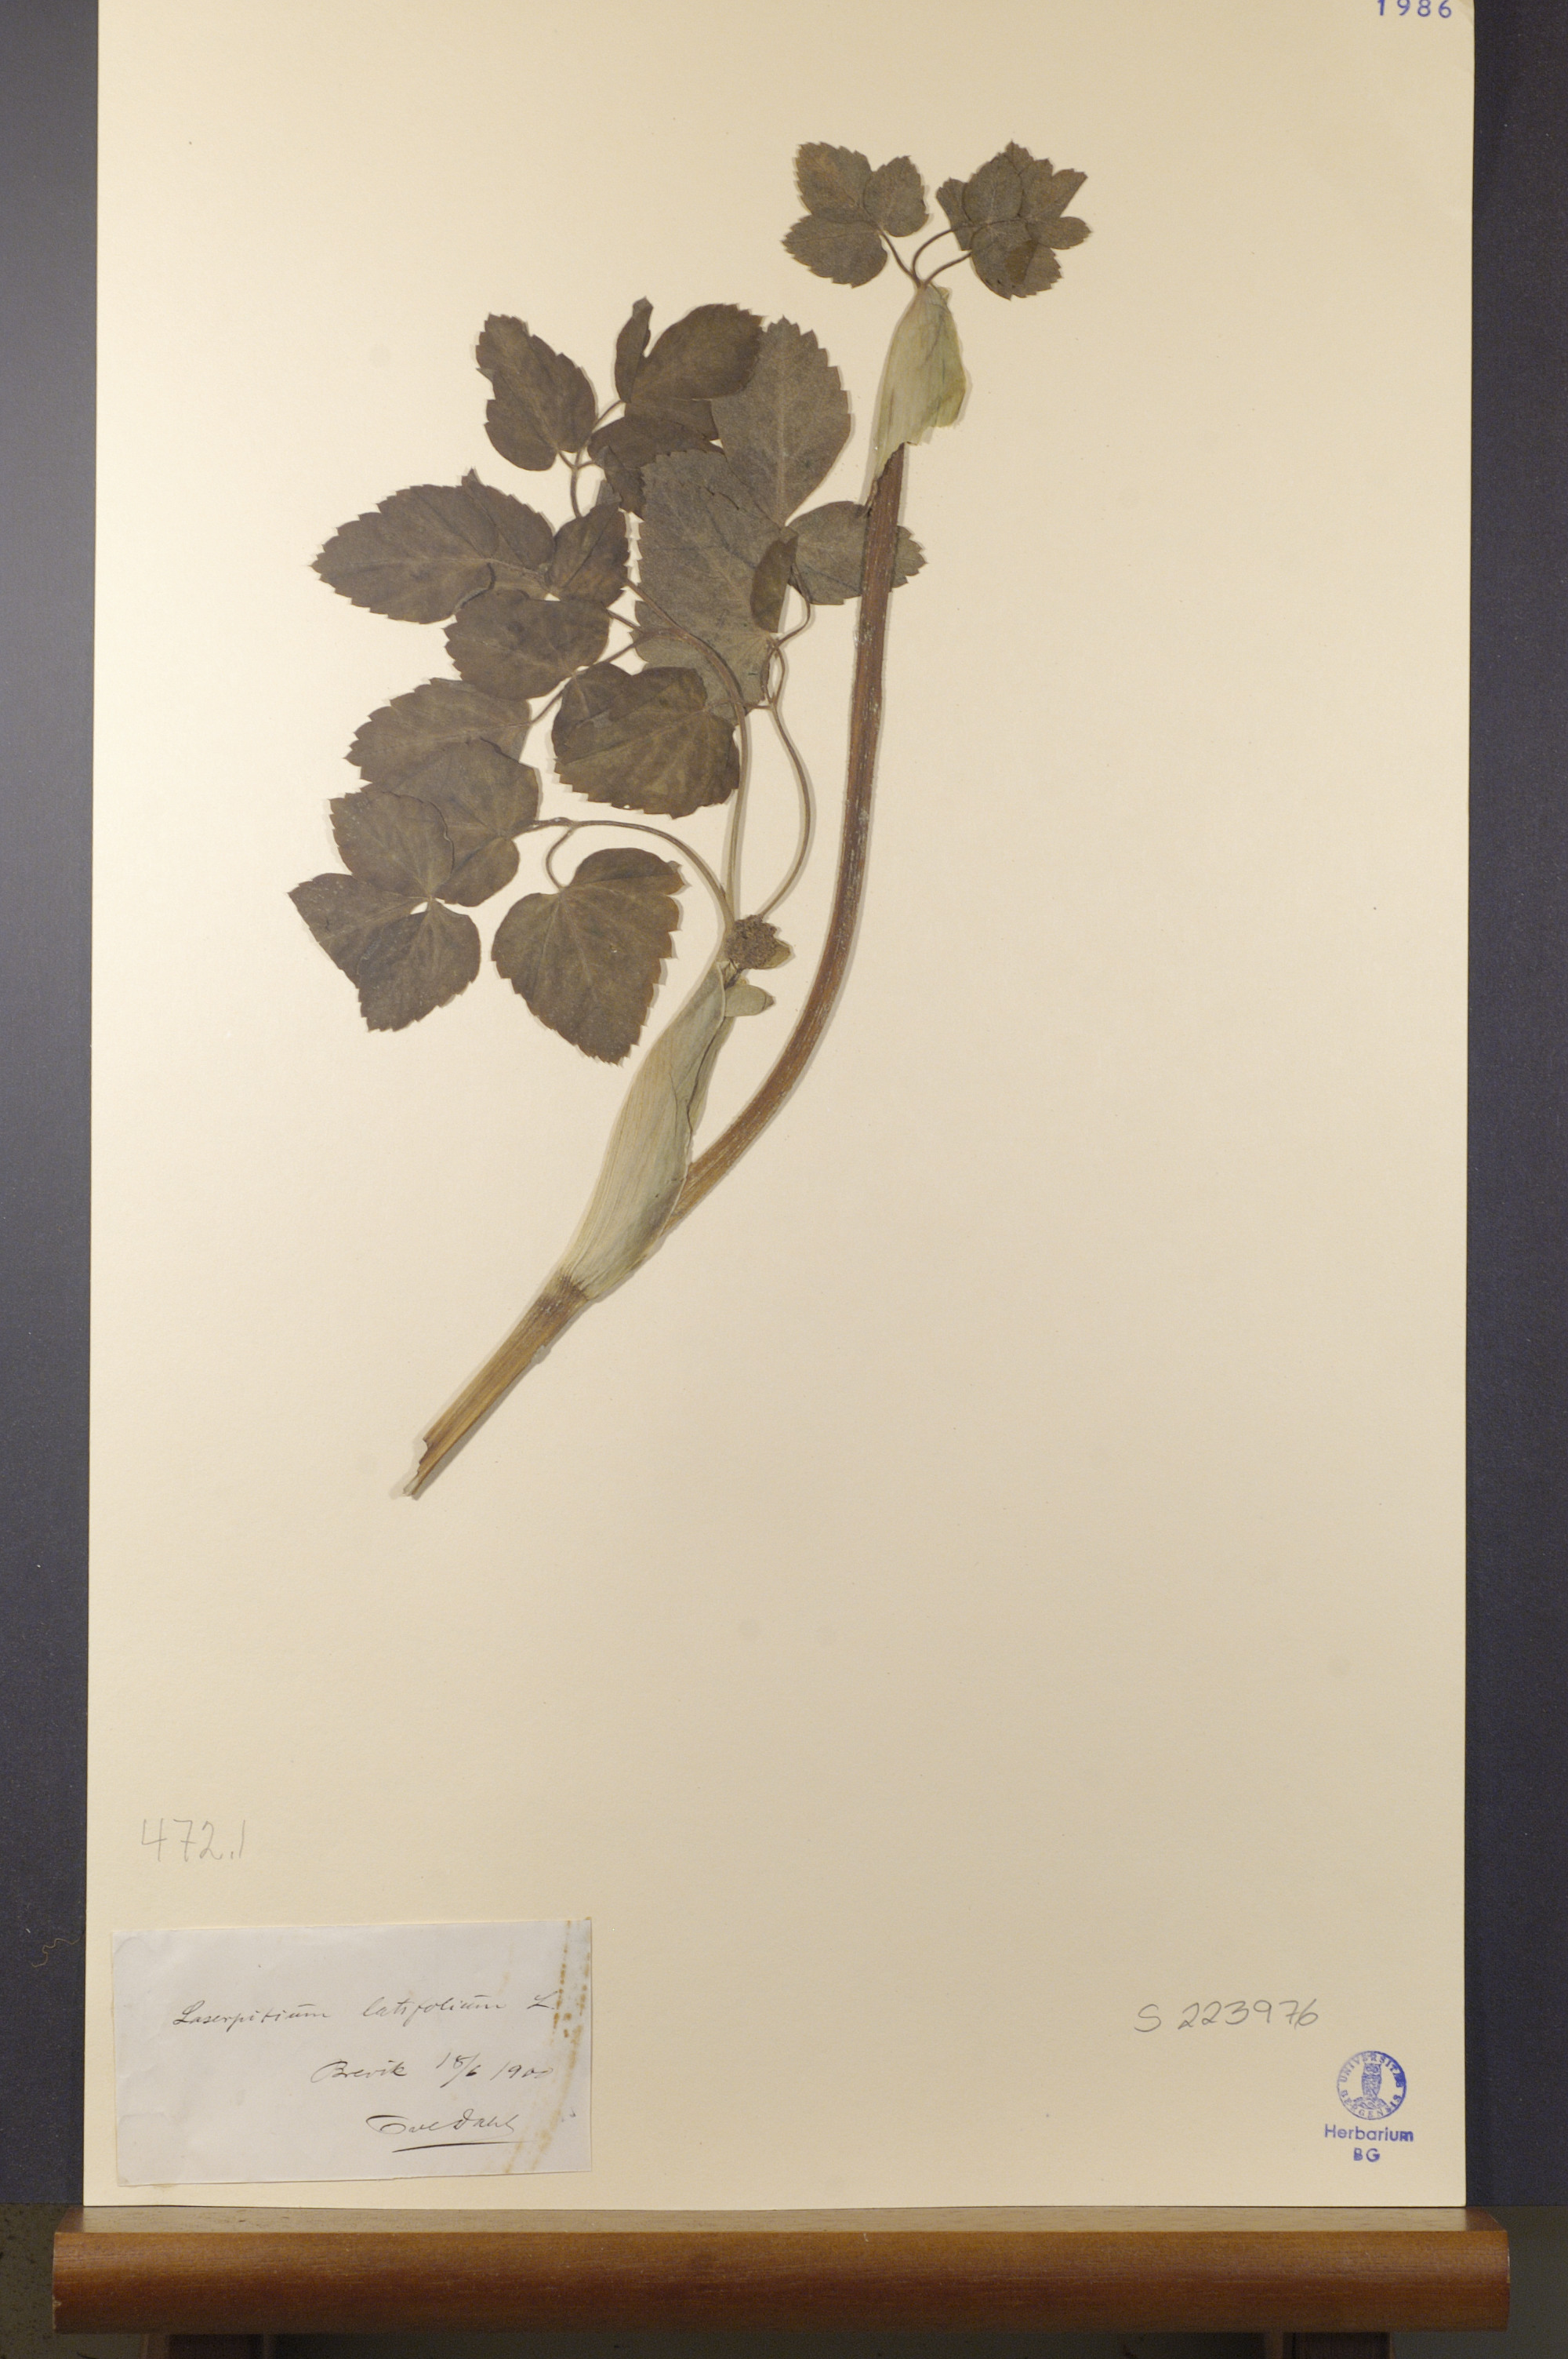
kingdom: Plantae
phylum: Tracheophyta
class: Magnoliopsida
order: Apiales
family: Apiaceae
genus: Laserpitium
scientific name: Laserpitium latifolium
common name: Broadleaf sermountain
